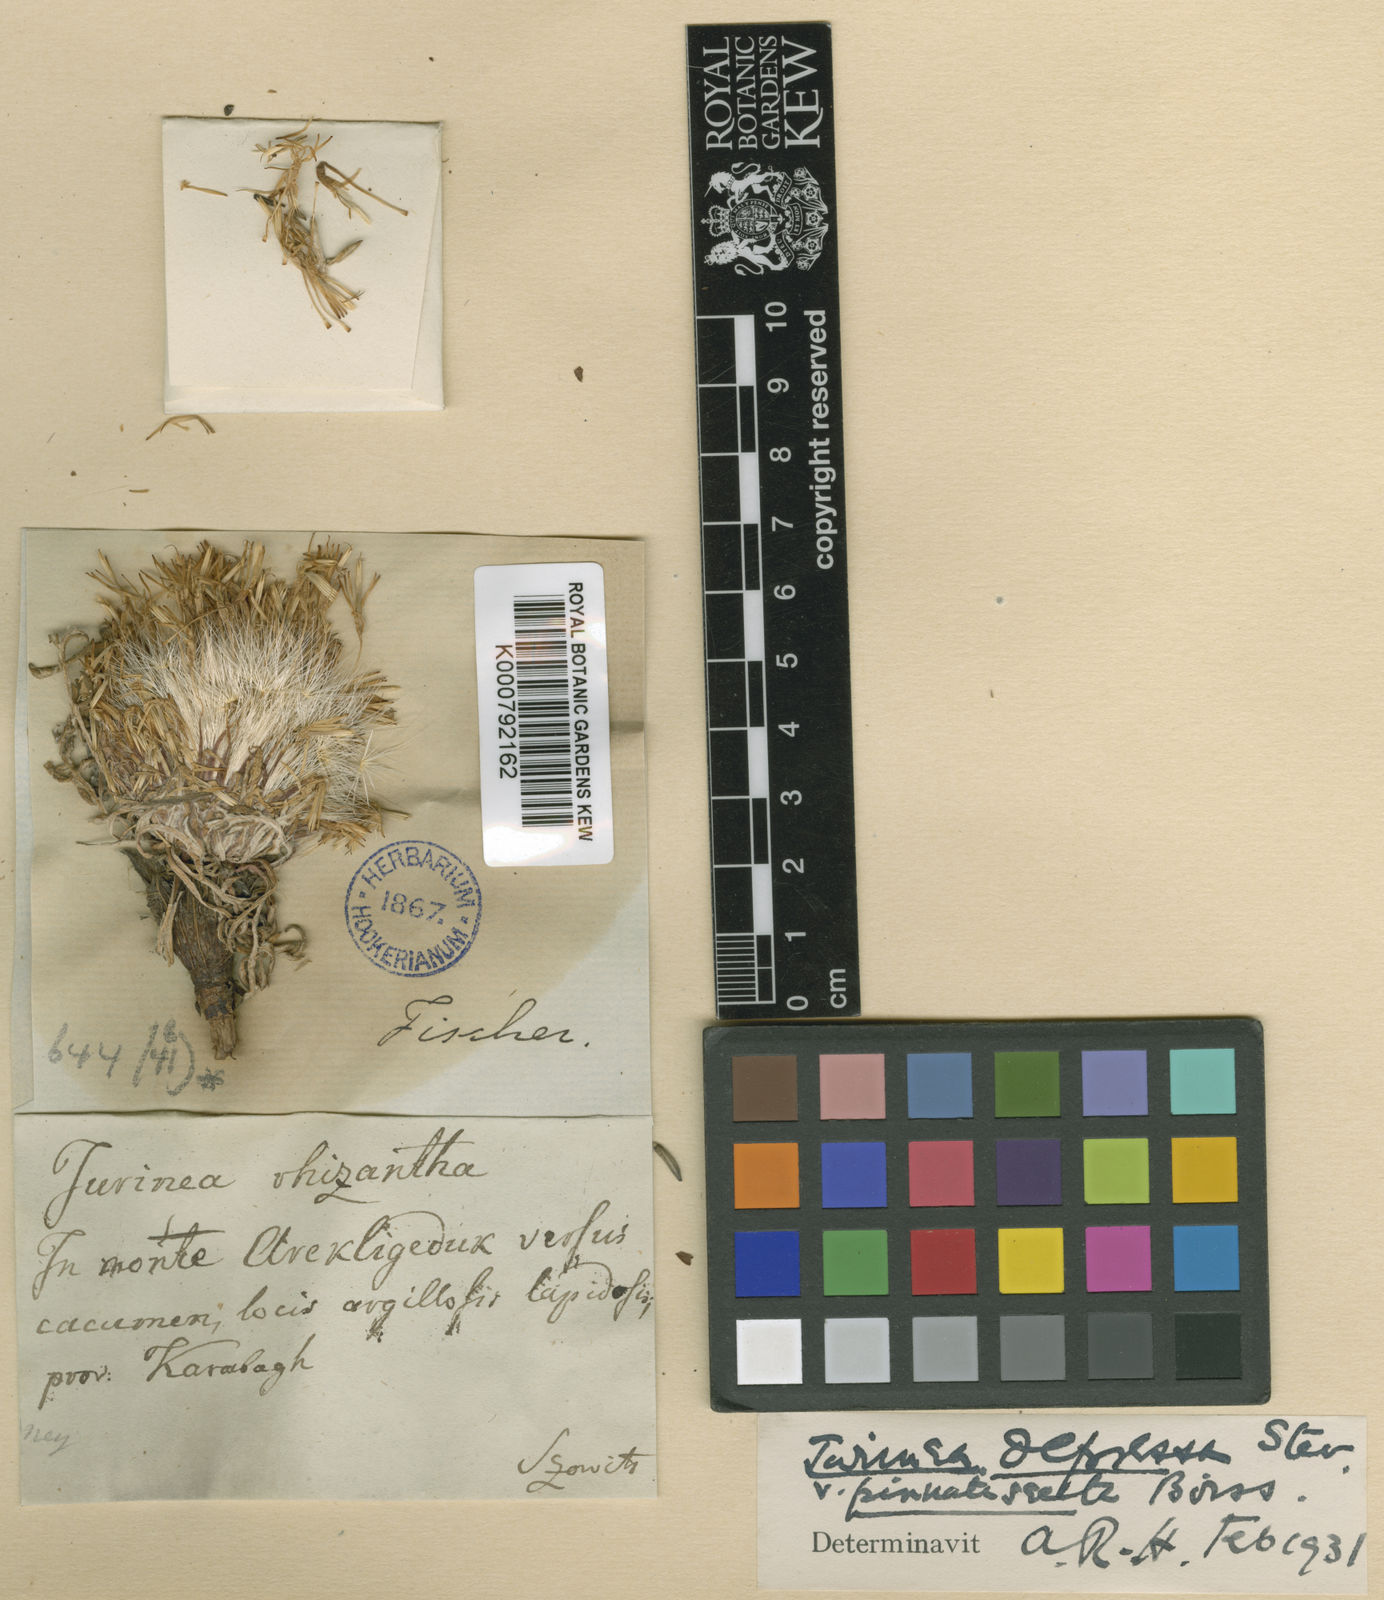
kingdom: Plantae
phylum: Tracheophyta
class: Magnoliopsida
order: Asterales
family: Asteraceae
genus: Jurinea
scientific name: Jurinea moschus
